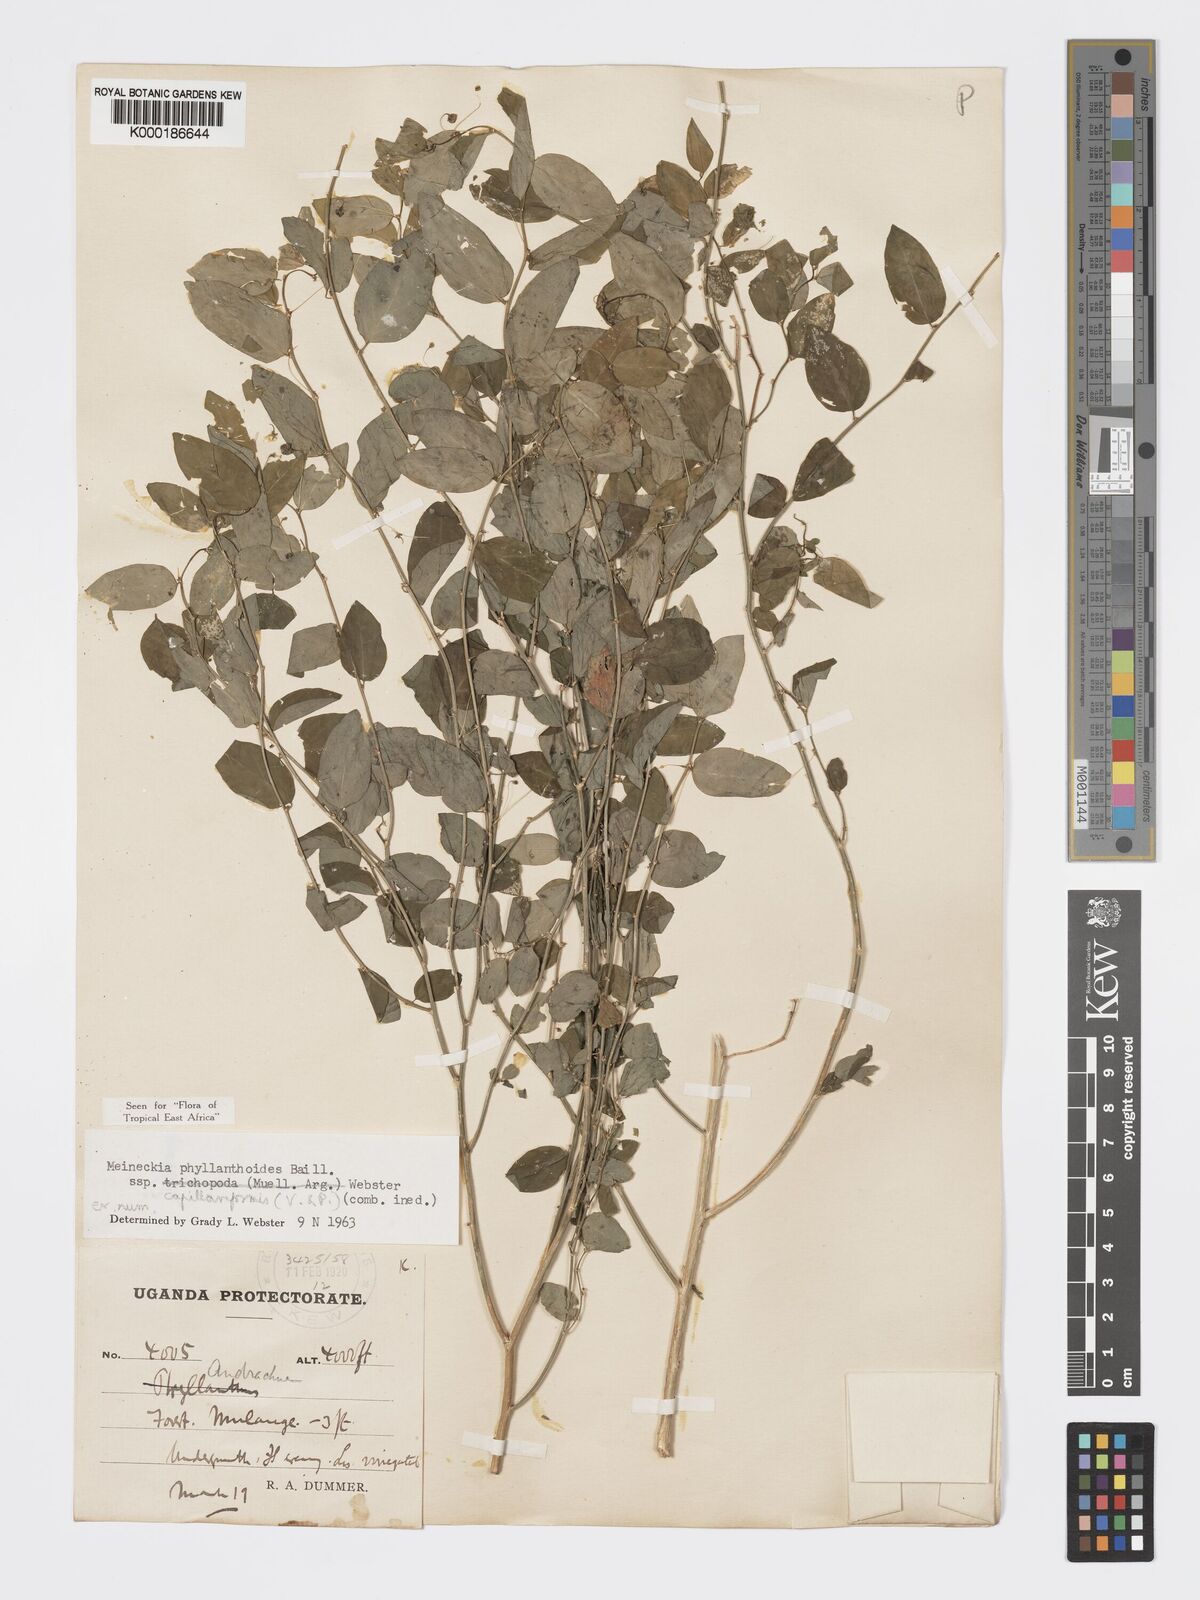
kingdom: Plantae
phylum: Tracheophyta
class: Magnoliopsida
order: Malpighiales
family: Phyllanthaceae
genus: Meineckia
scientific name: Meineckia phyllanthoides
